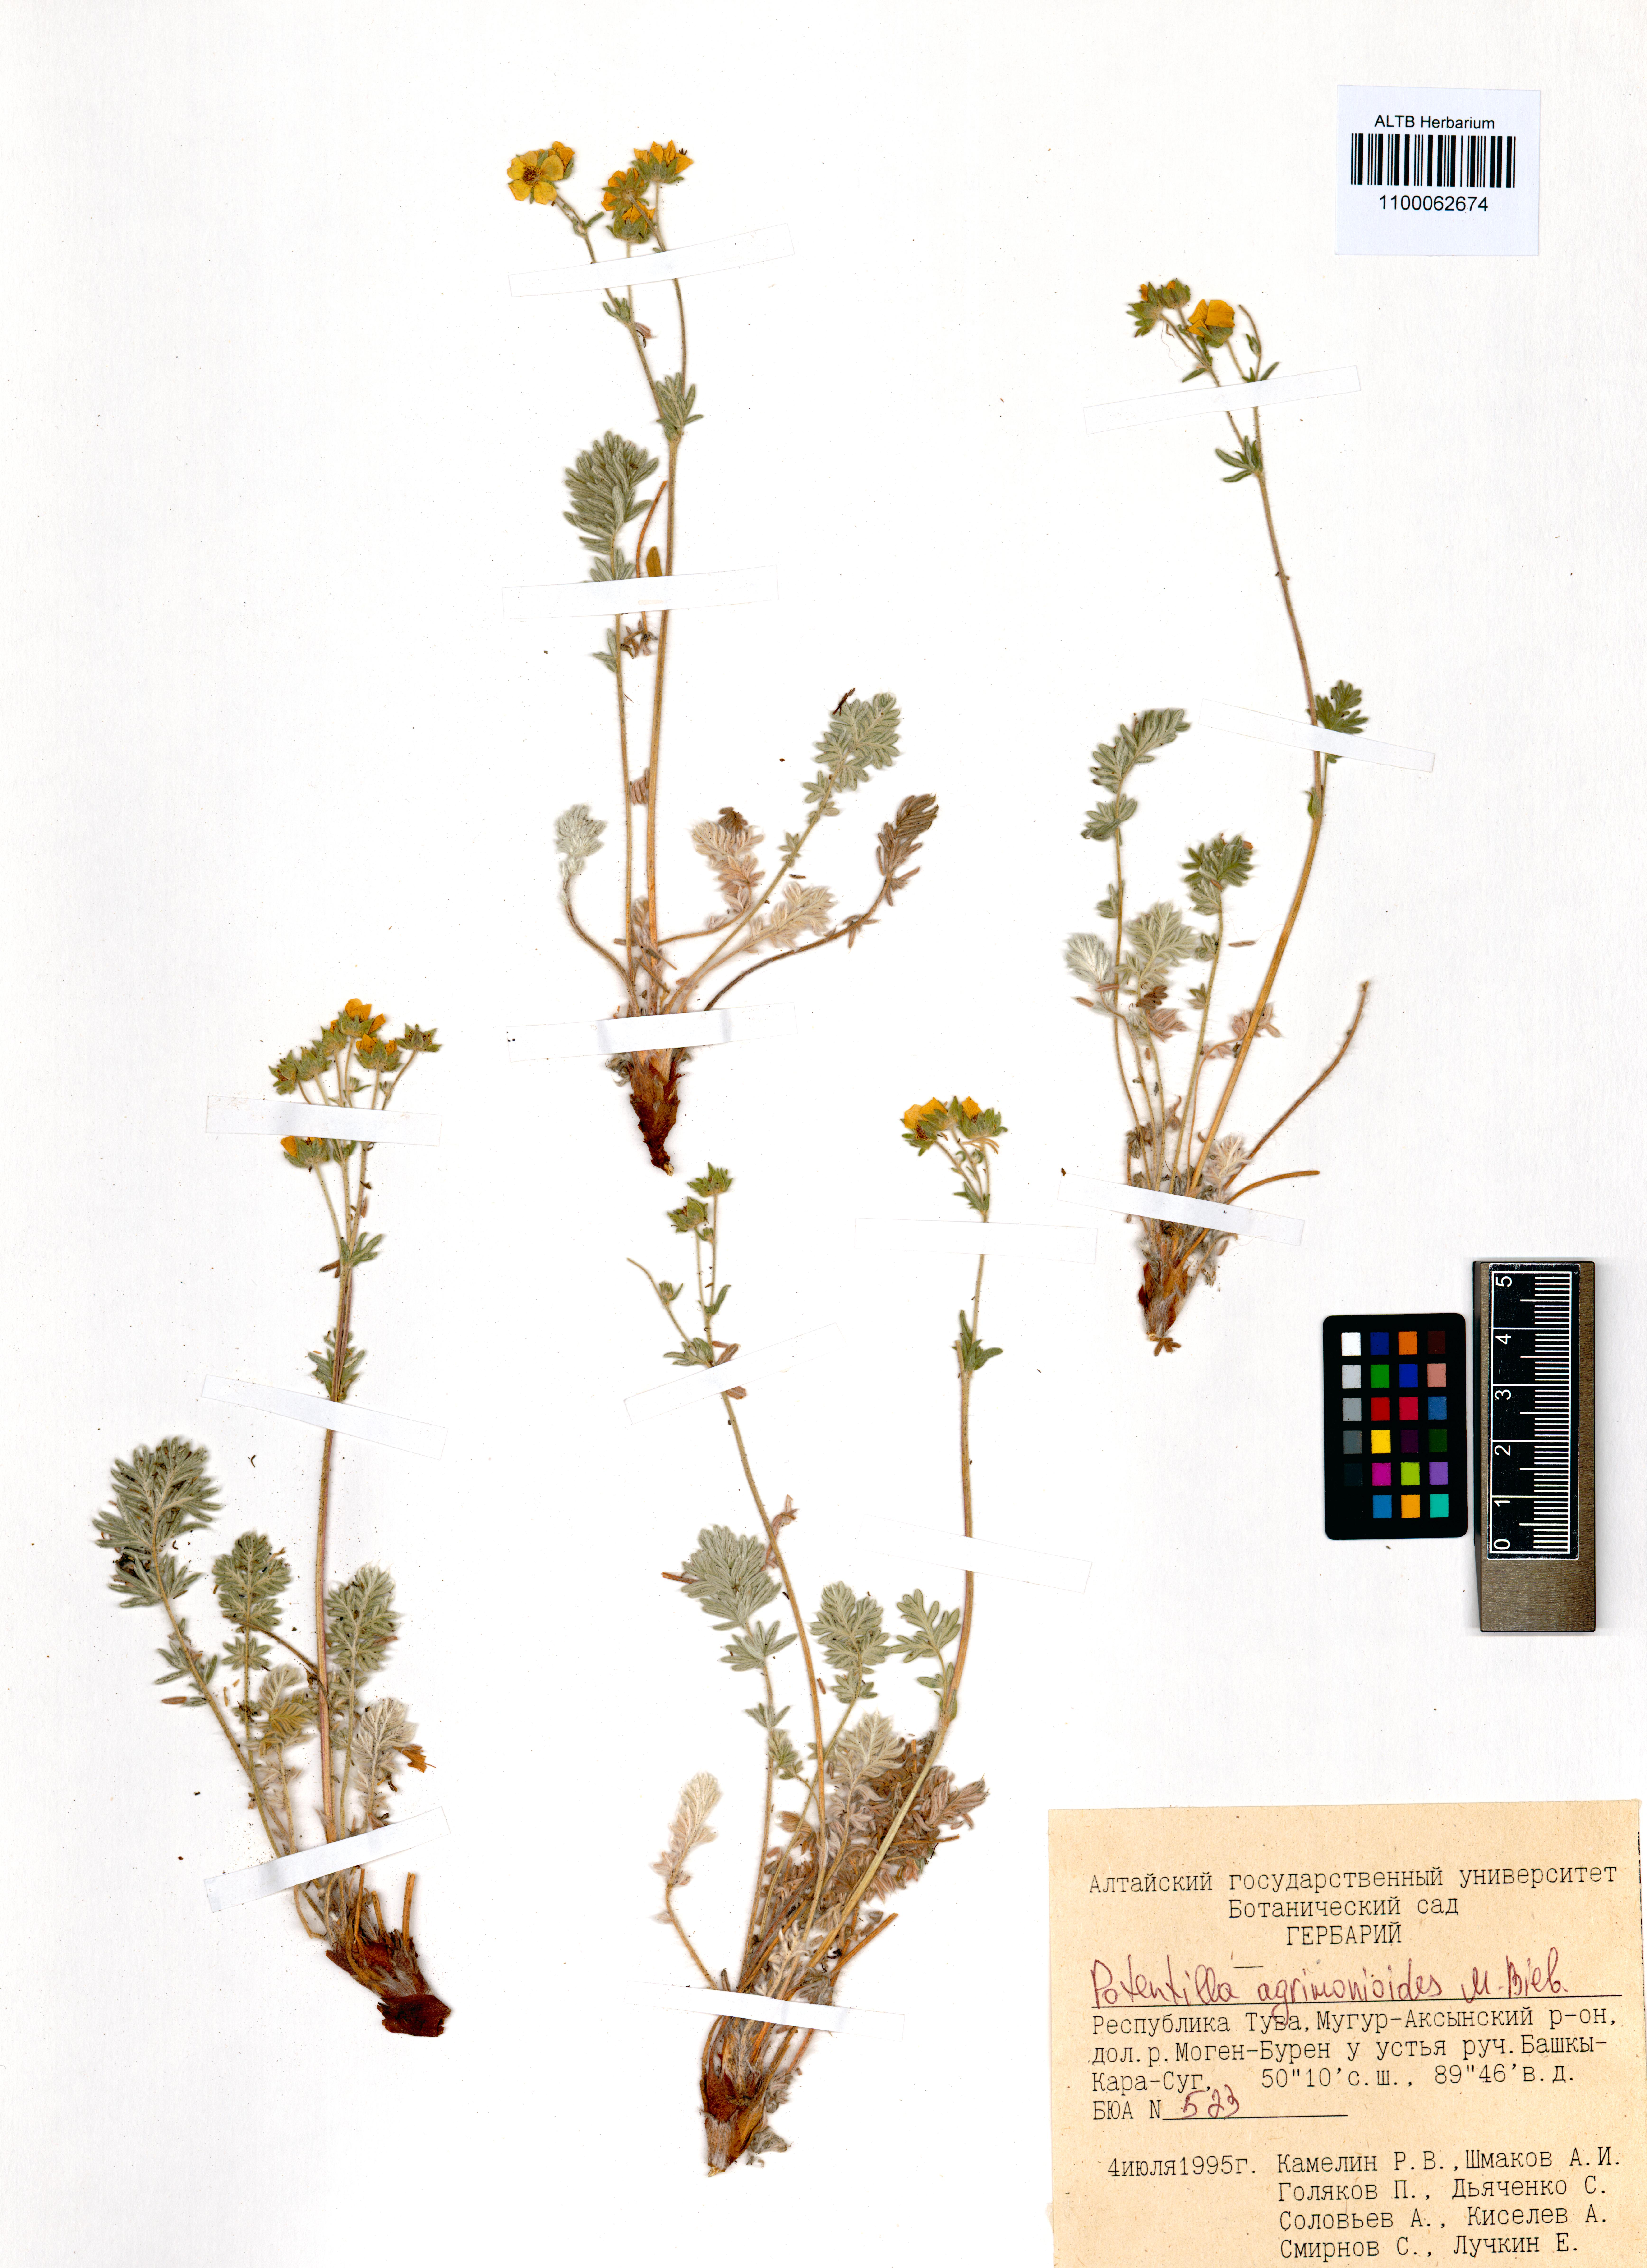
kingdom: Plantae
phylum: Tracheophyta
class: Magnoliopsida
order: Rosales
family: Rosaceae
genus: Potentilla
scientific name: Potentilla agrimonioides
